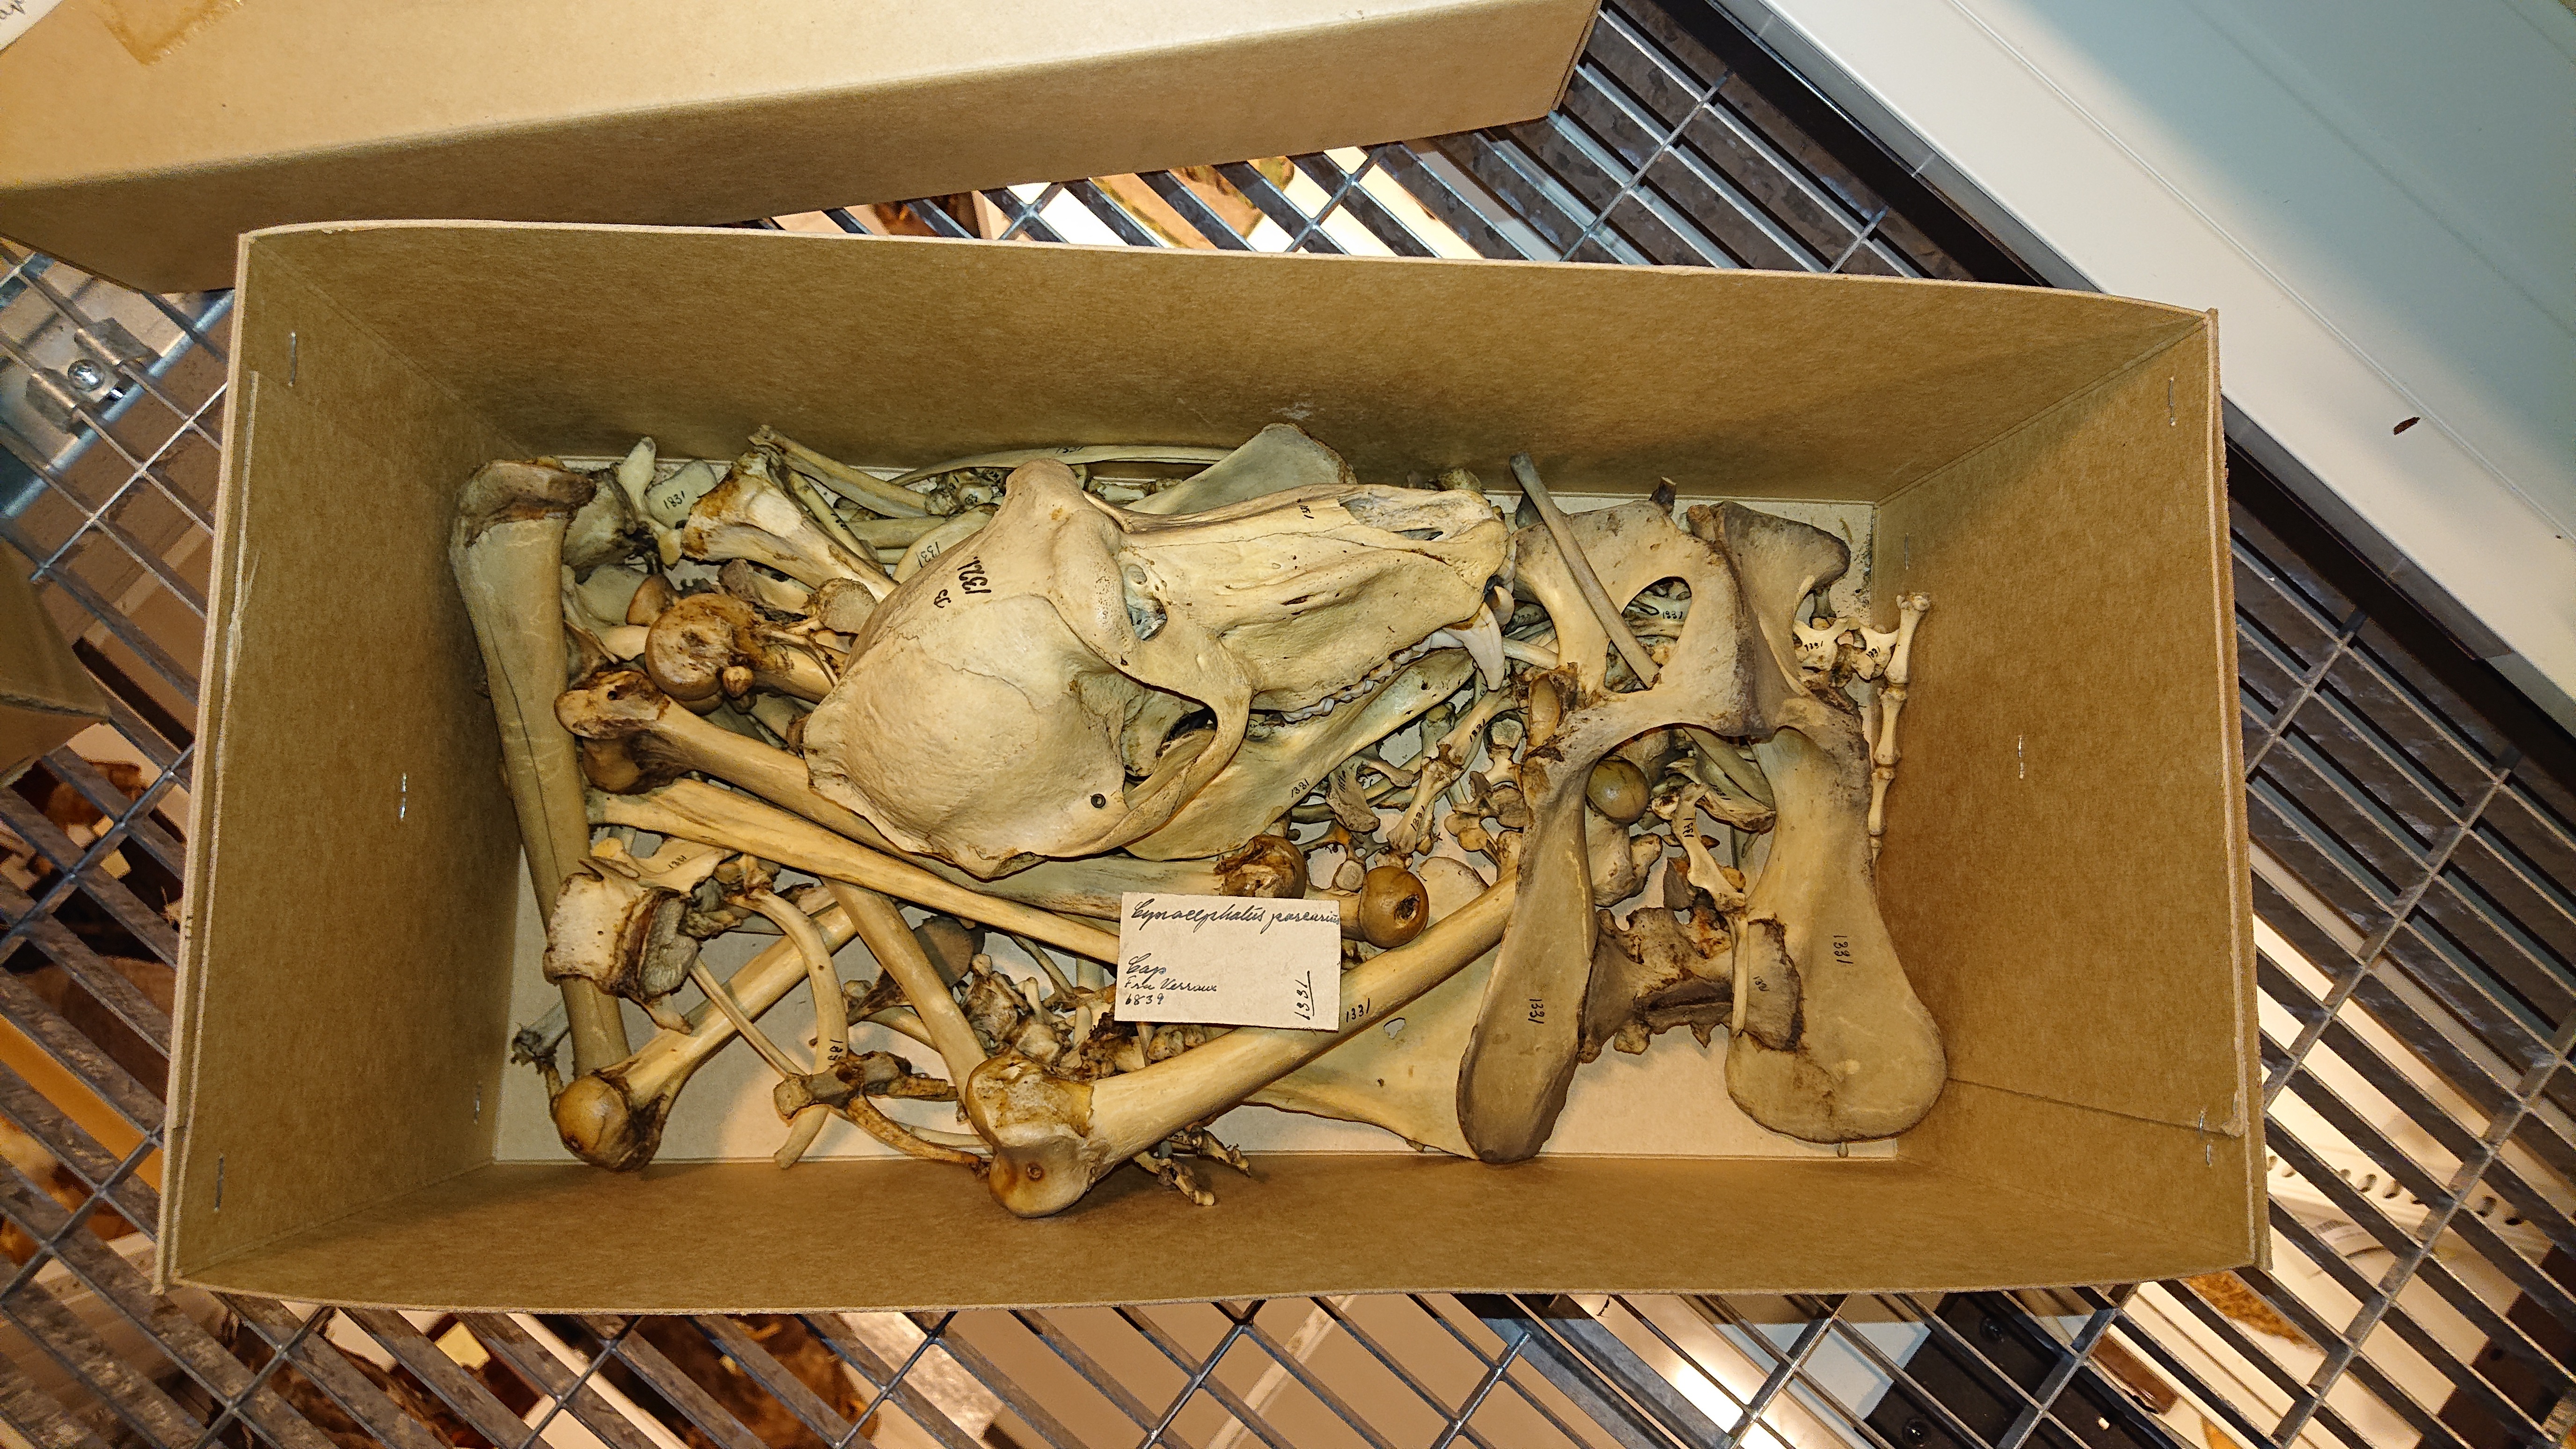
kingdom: Animalia
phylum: Chordata
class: Mammalia
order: Primates
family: Cercopithecidae
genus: Papio
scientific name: Papio ursinus
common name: Chacma baboon
